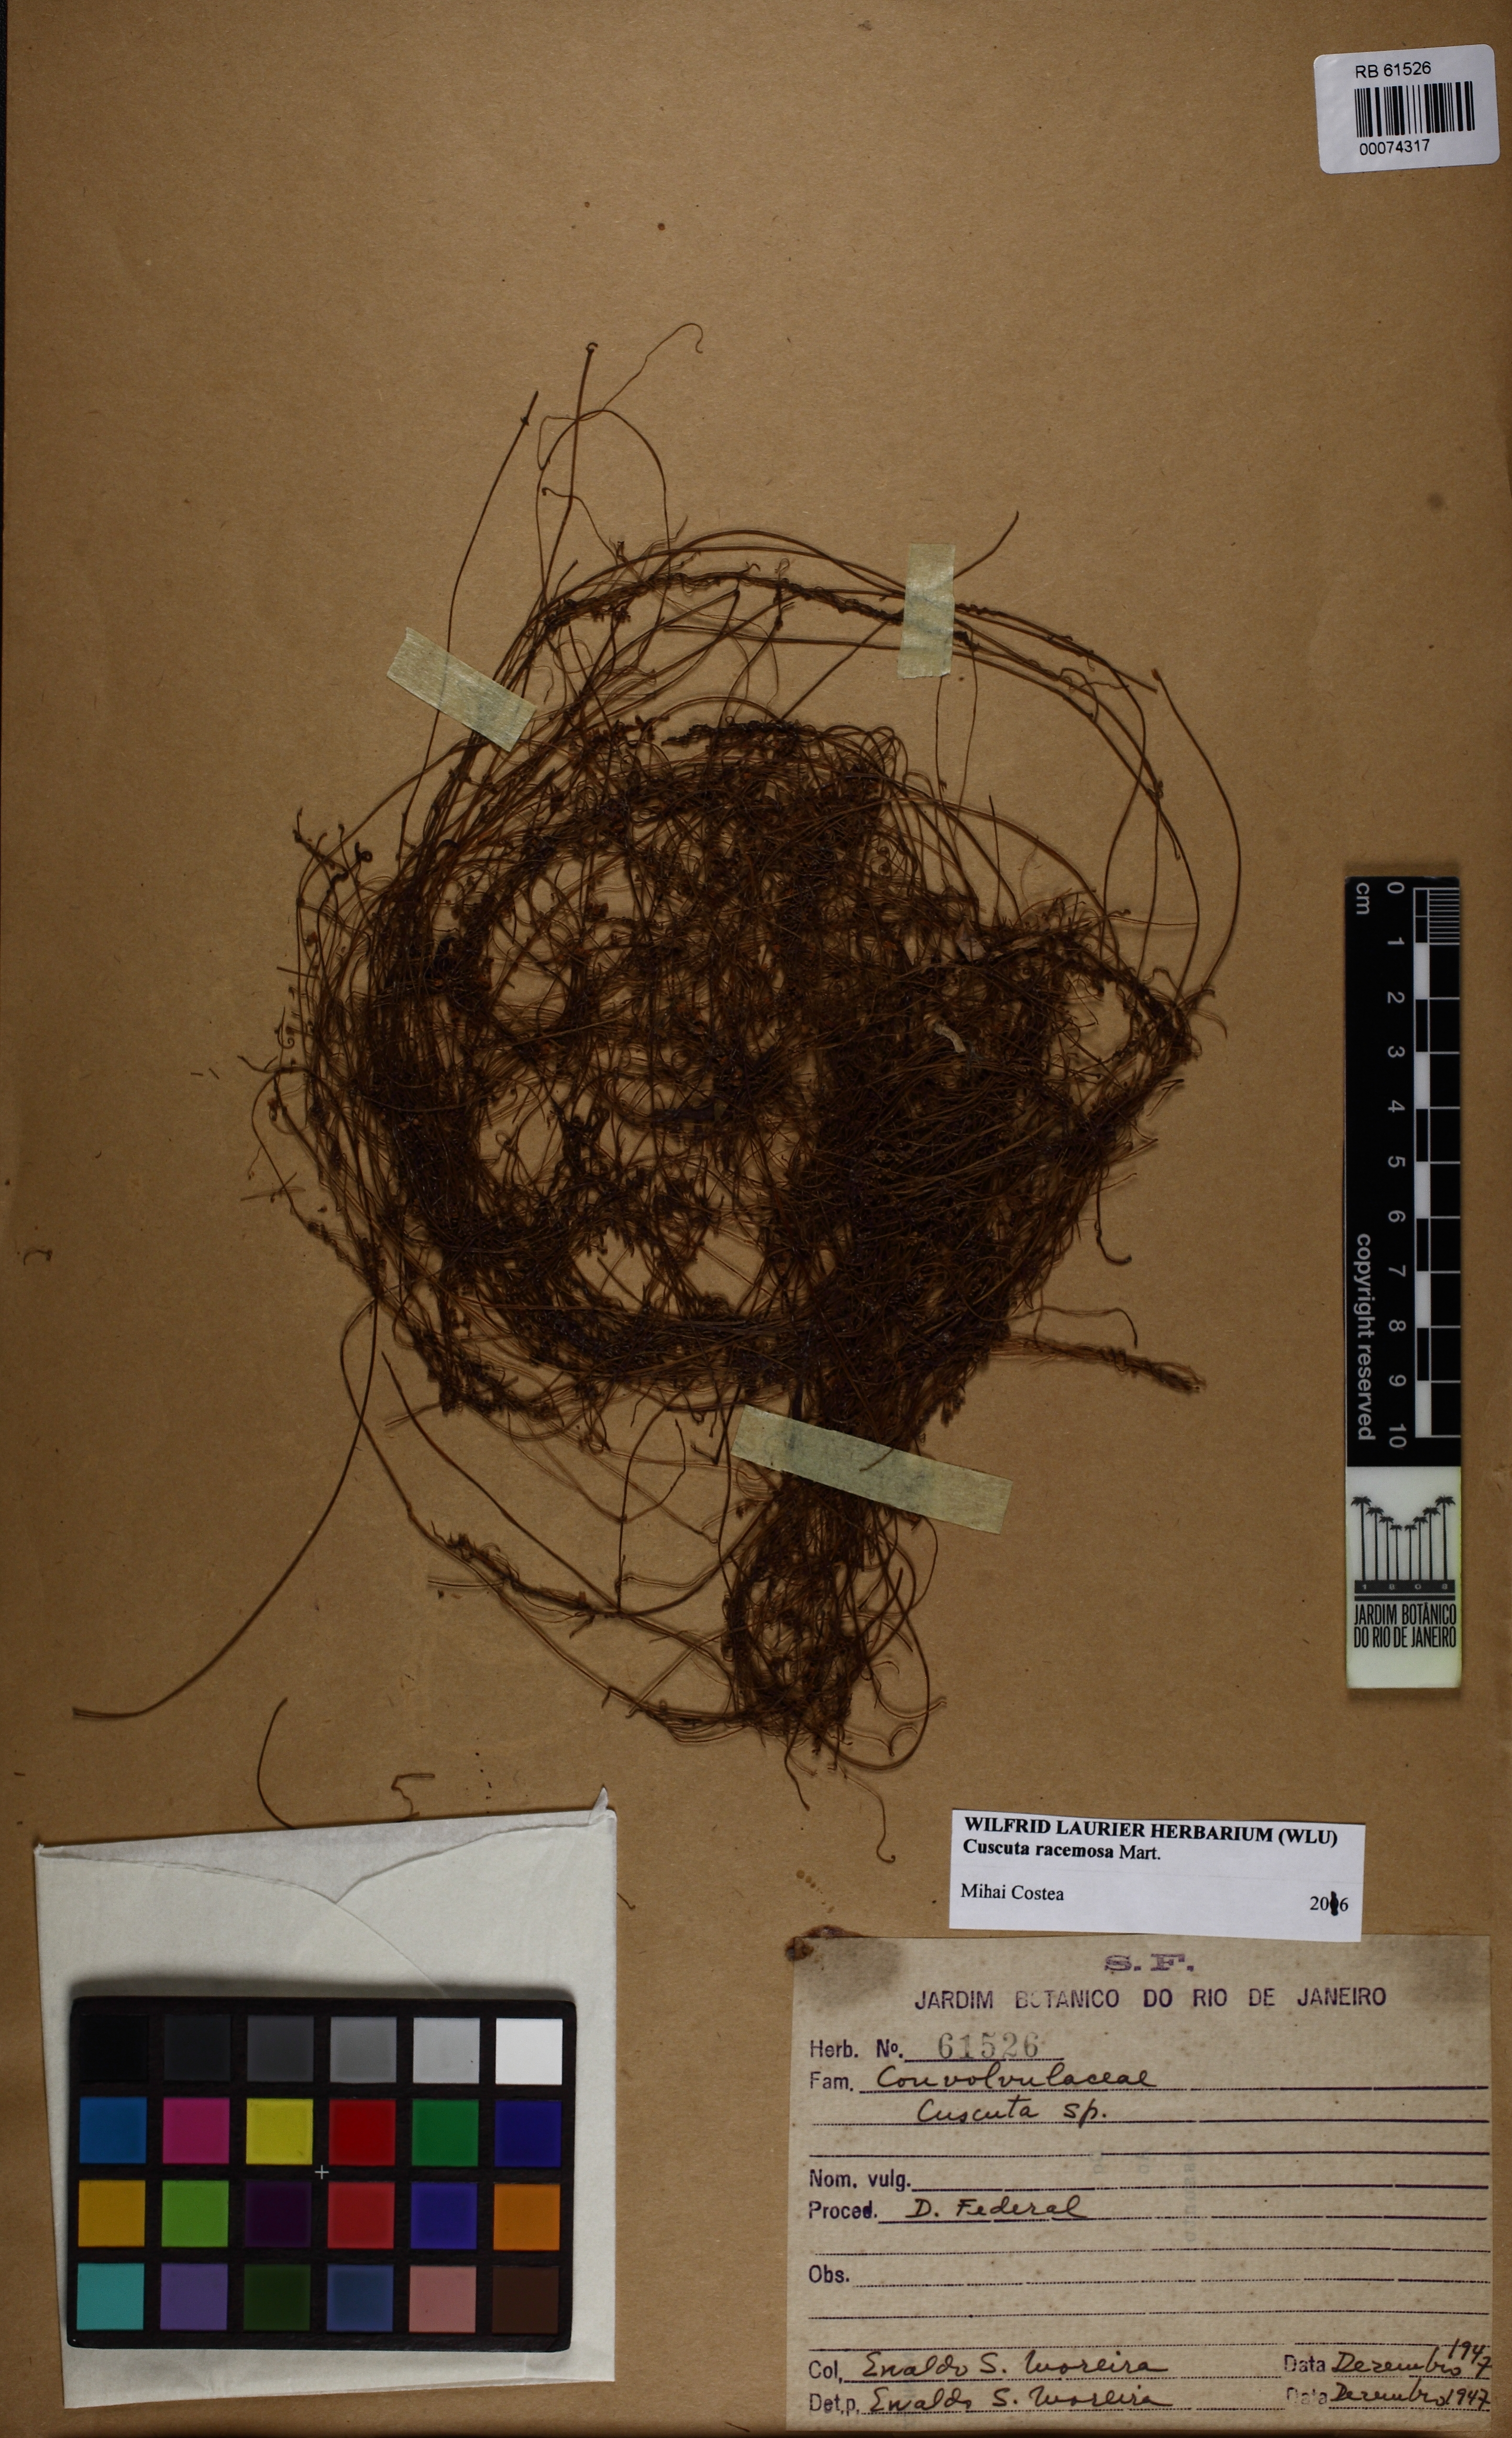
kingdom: Plantae
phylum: Tracheophyta
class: Magnoliopsida
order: Solanales
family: Convolvulaceae
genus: Cuscuta
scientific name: Cuscuta racemosa
